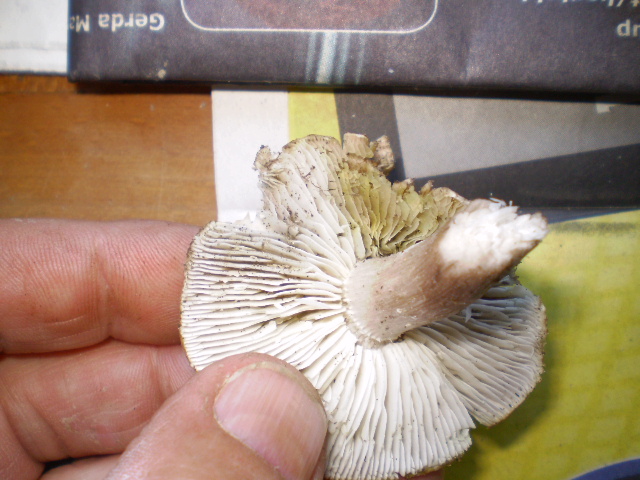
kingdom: Fungi
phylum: Basidiomycota
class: Agaricomycetes
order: Agaricales
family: Tricholomataceae
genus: Tricholoma
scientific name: Tricholoma scalpturatum
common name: gulplettet ridderhat
